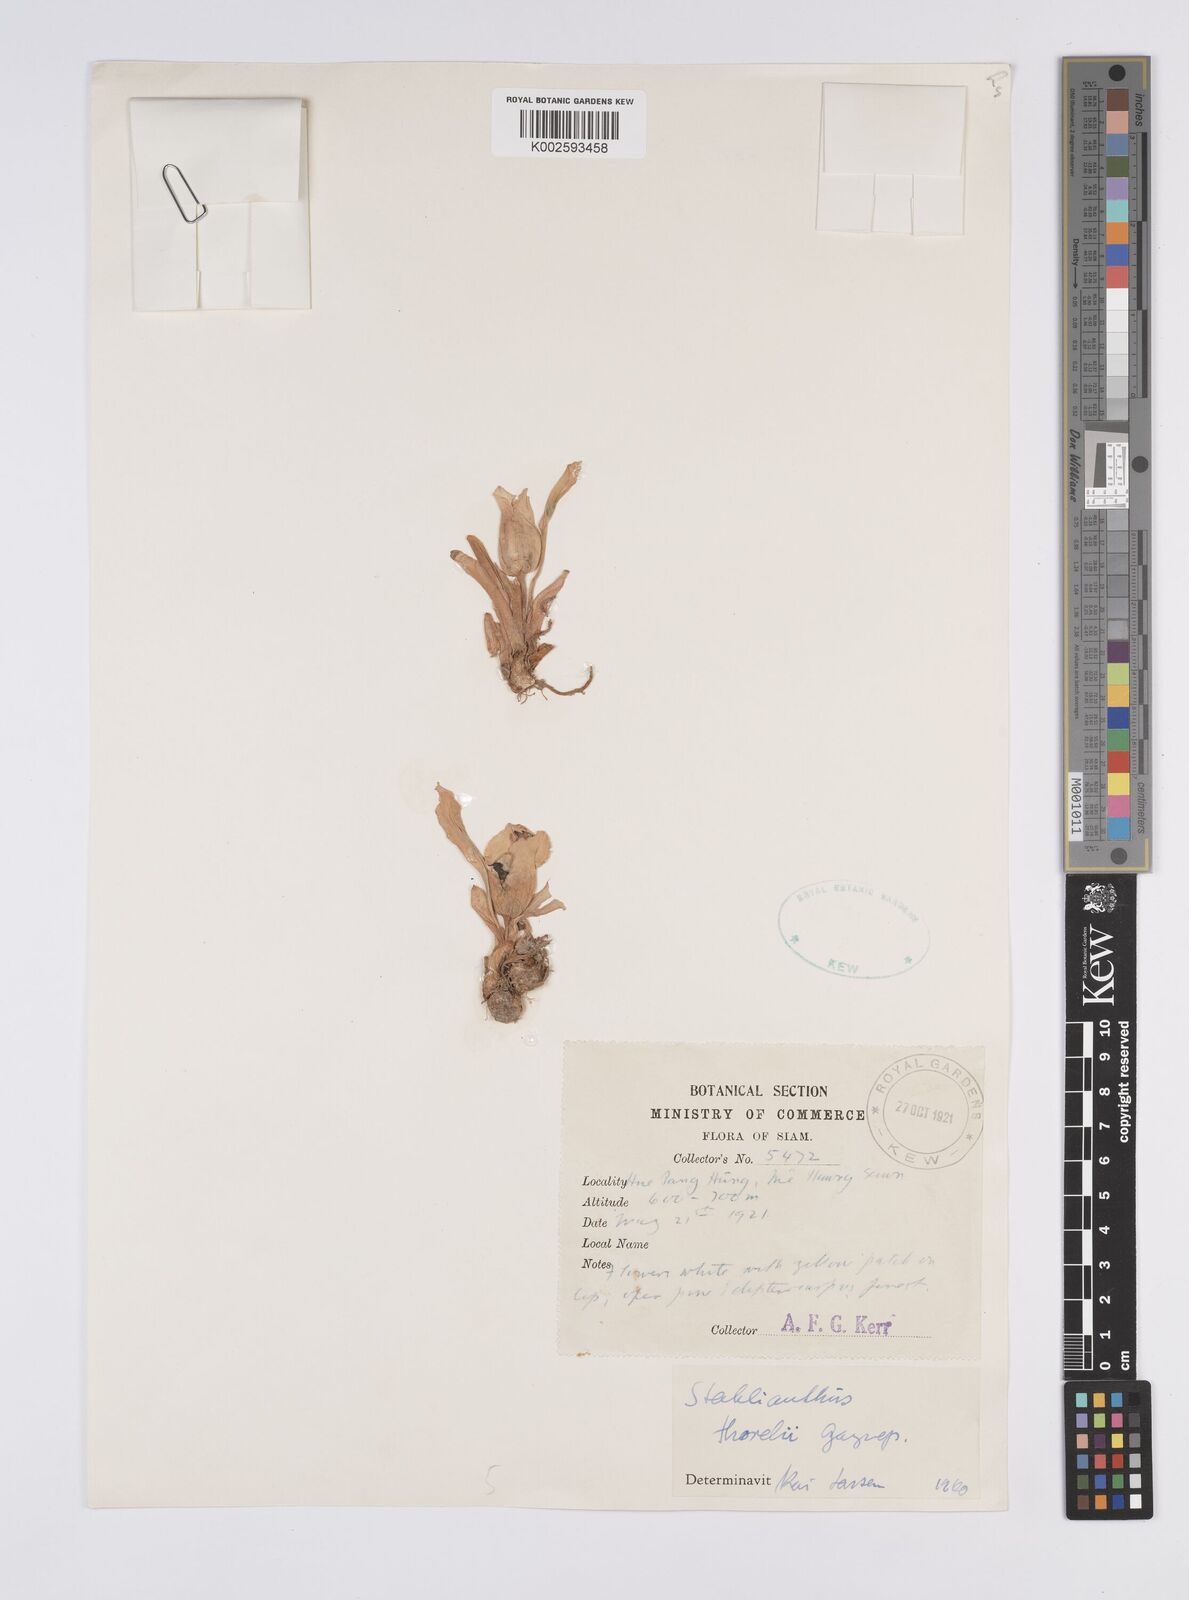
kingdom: Plantae
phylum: Tracheophyta
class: Liliopsida
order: Zingiberales
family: Zingiberaceae
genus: Curcuma
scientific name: Curcuma clovisii
